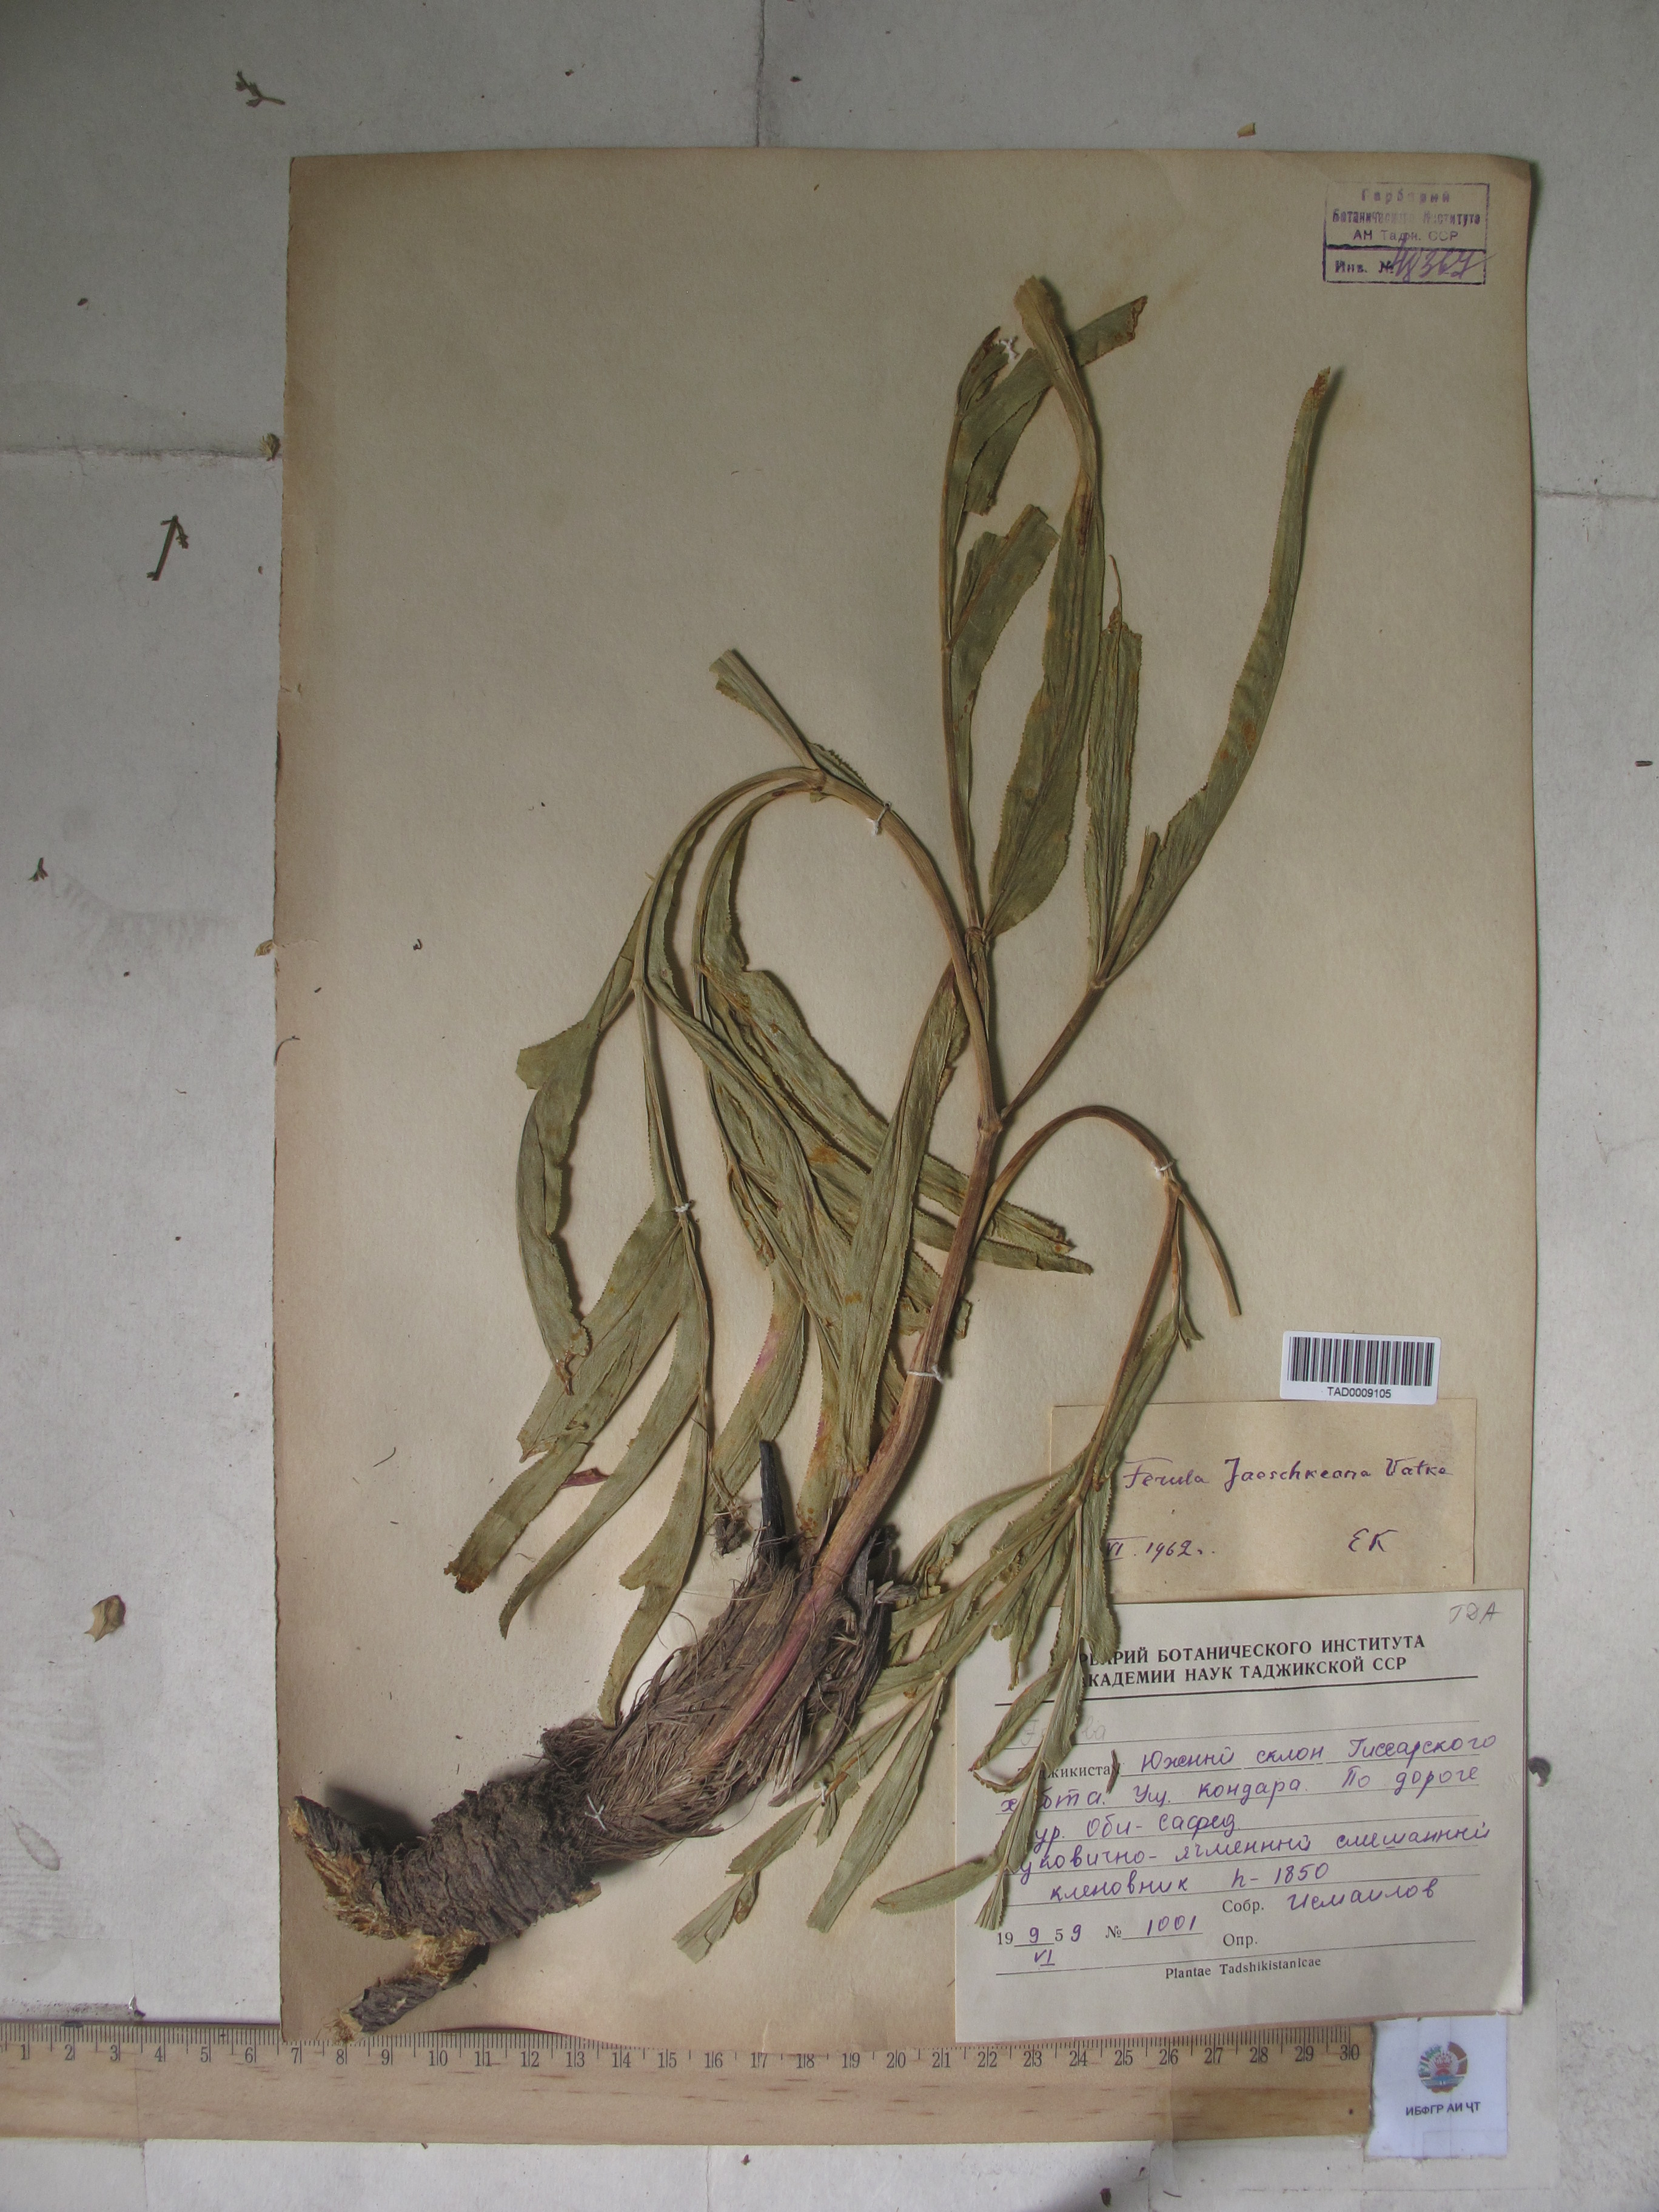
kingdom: Plantae
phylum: Tracheophyta
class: Magnoliopsida
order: Apiales
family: Apiaceae
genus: Ferula
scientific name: Ferula jaeschkeana
